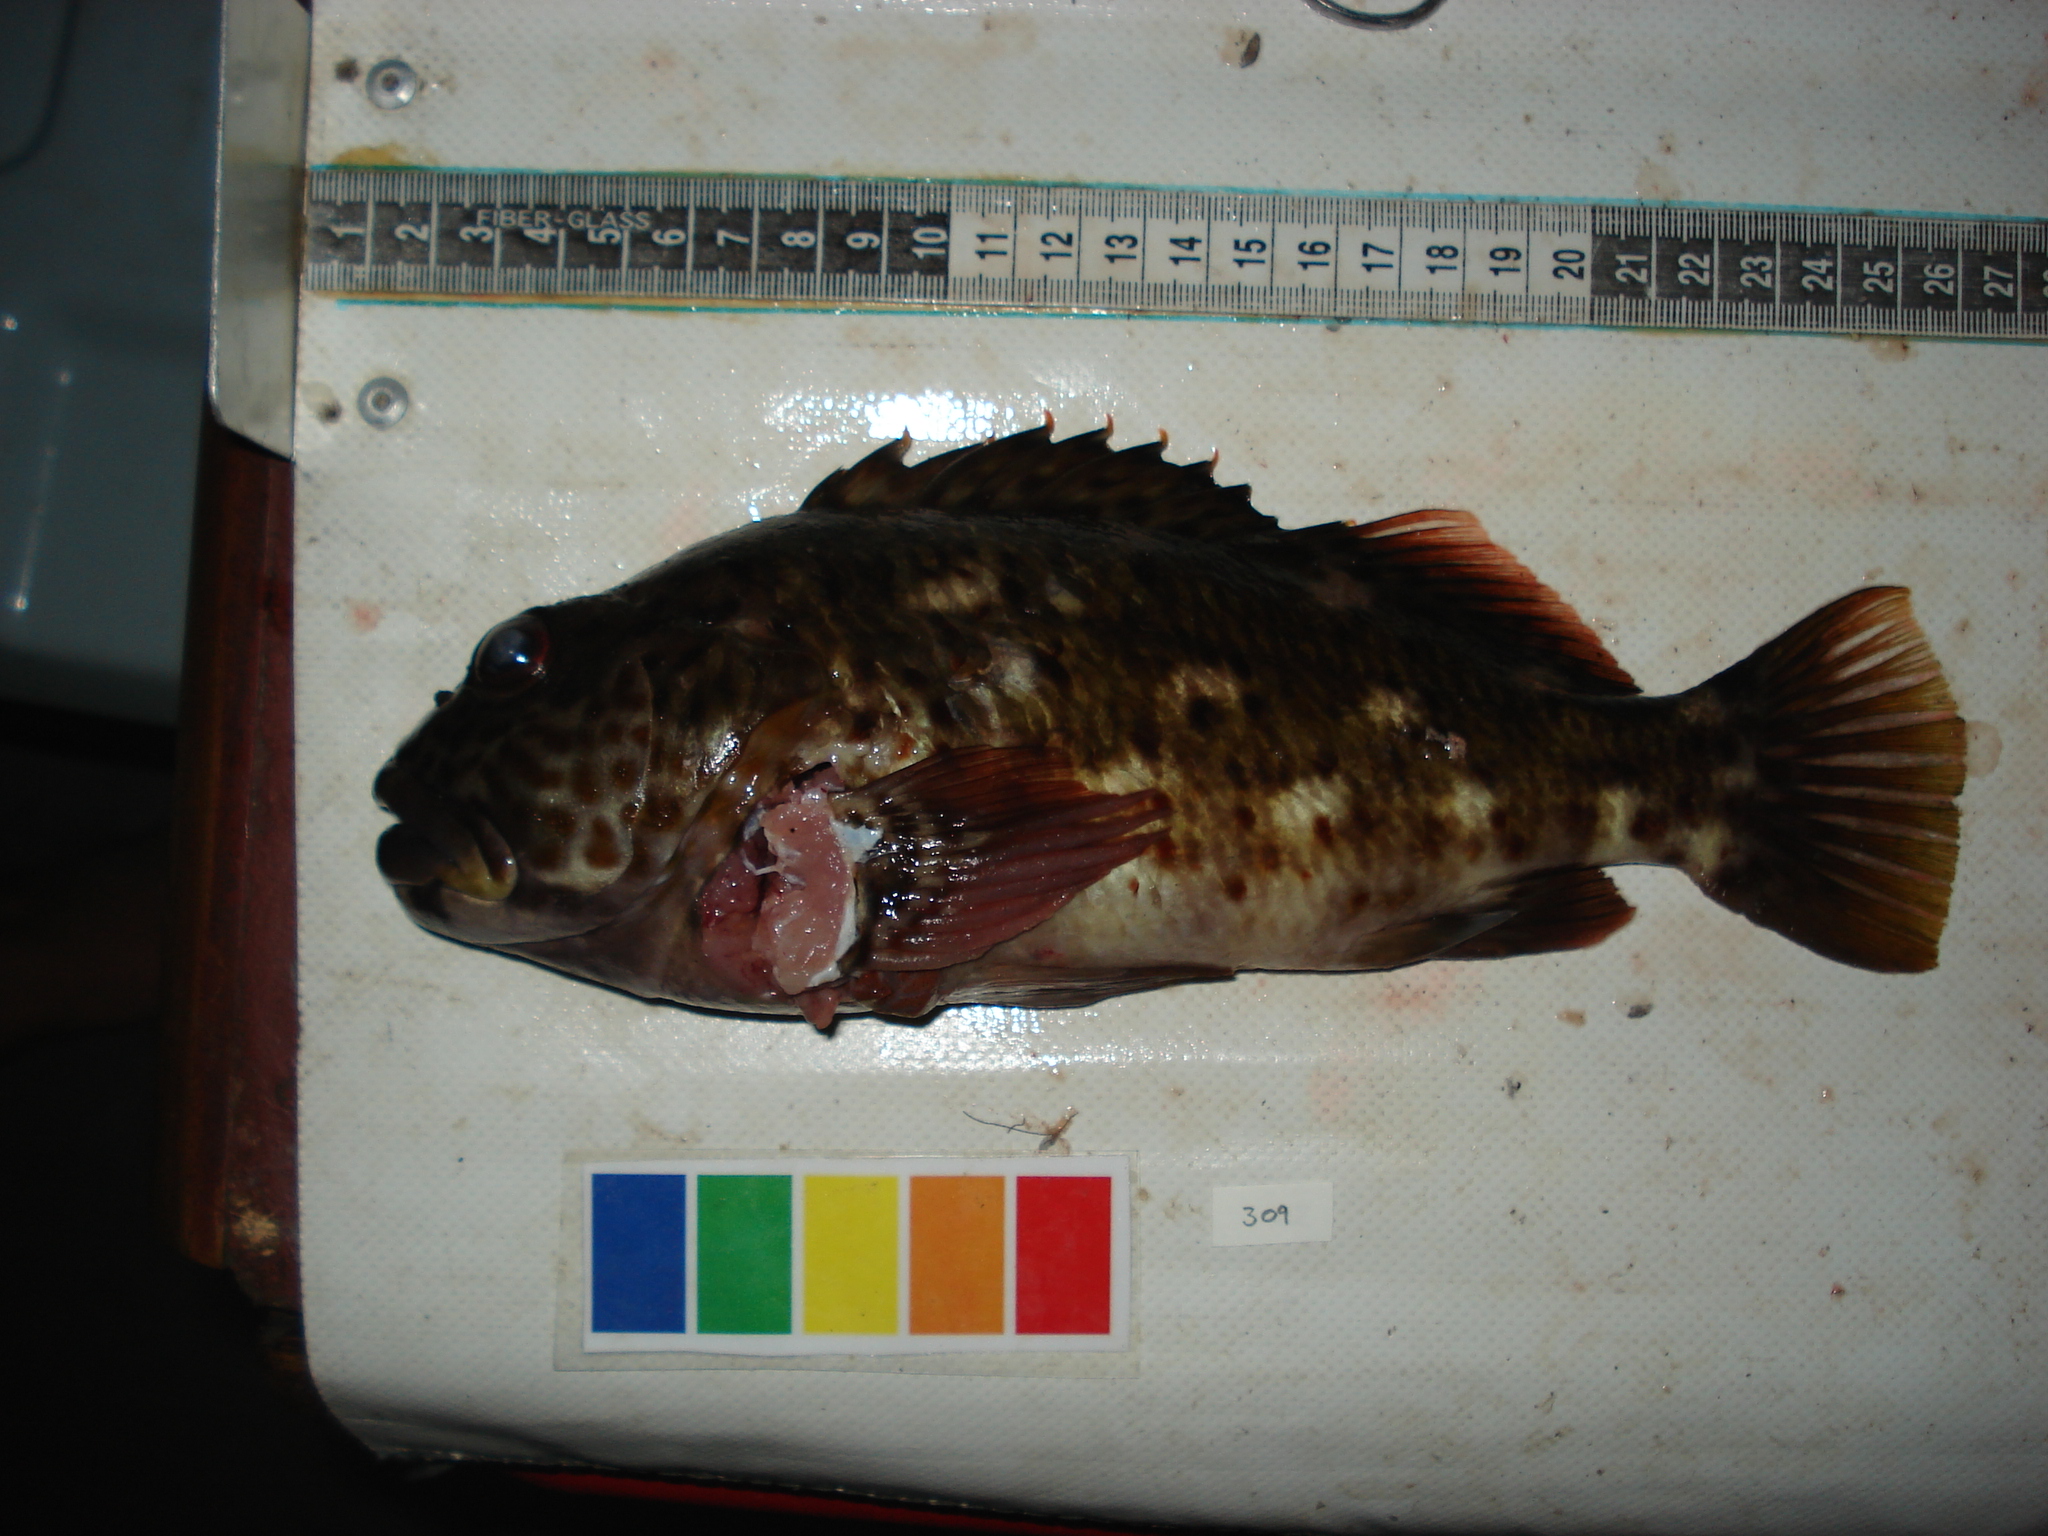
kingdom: Animalia
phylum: Chordata
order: Perciformes
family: Cirrhitidae
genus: Cirrhitus
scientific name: Cirrhitus pinnulatus
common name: Stocky hawkfish
